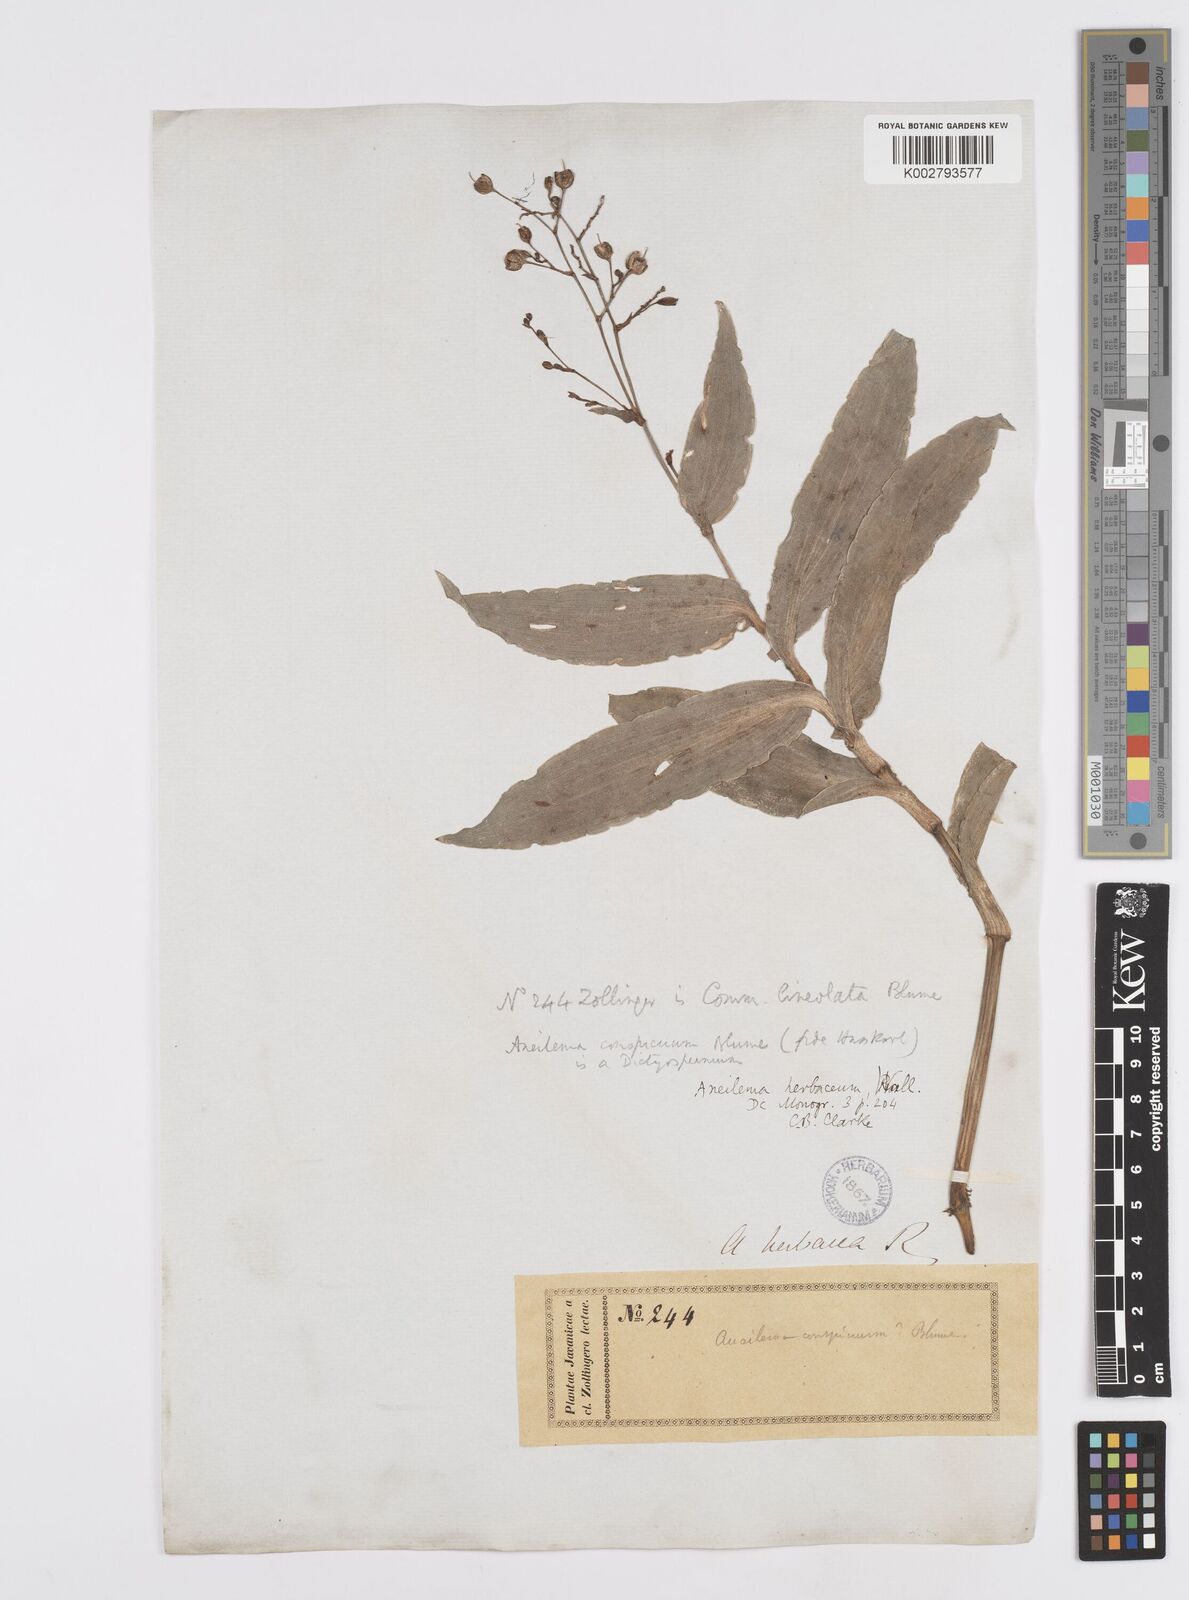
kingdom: Plantae
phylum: Tracheophyta
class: Liliopsida
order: Commelinales
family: Commelinaceae
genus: Murdannia
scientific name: Murdannia
